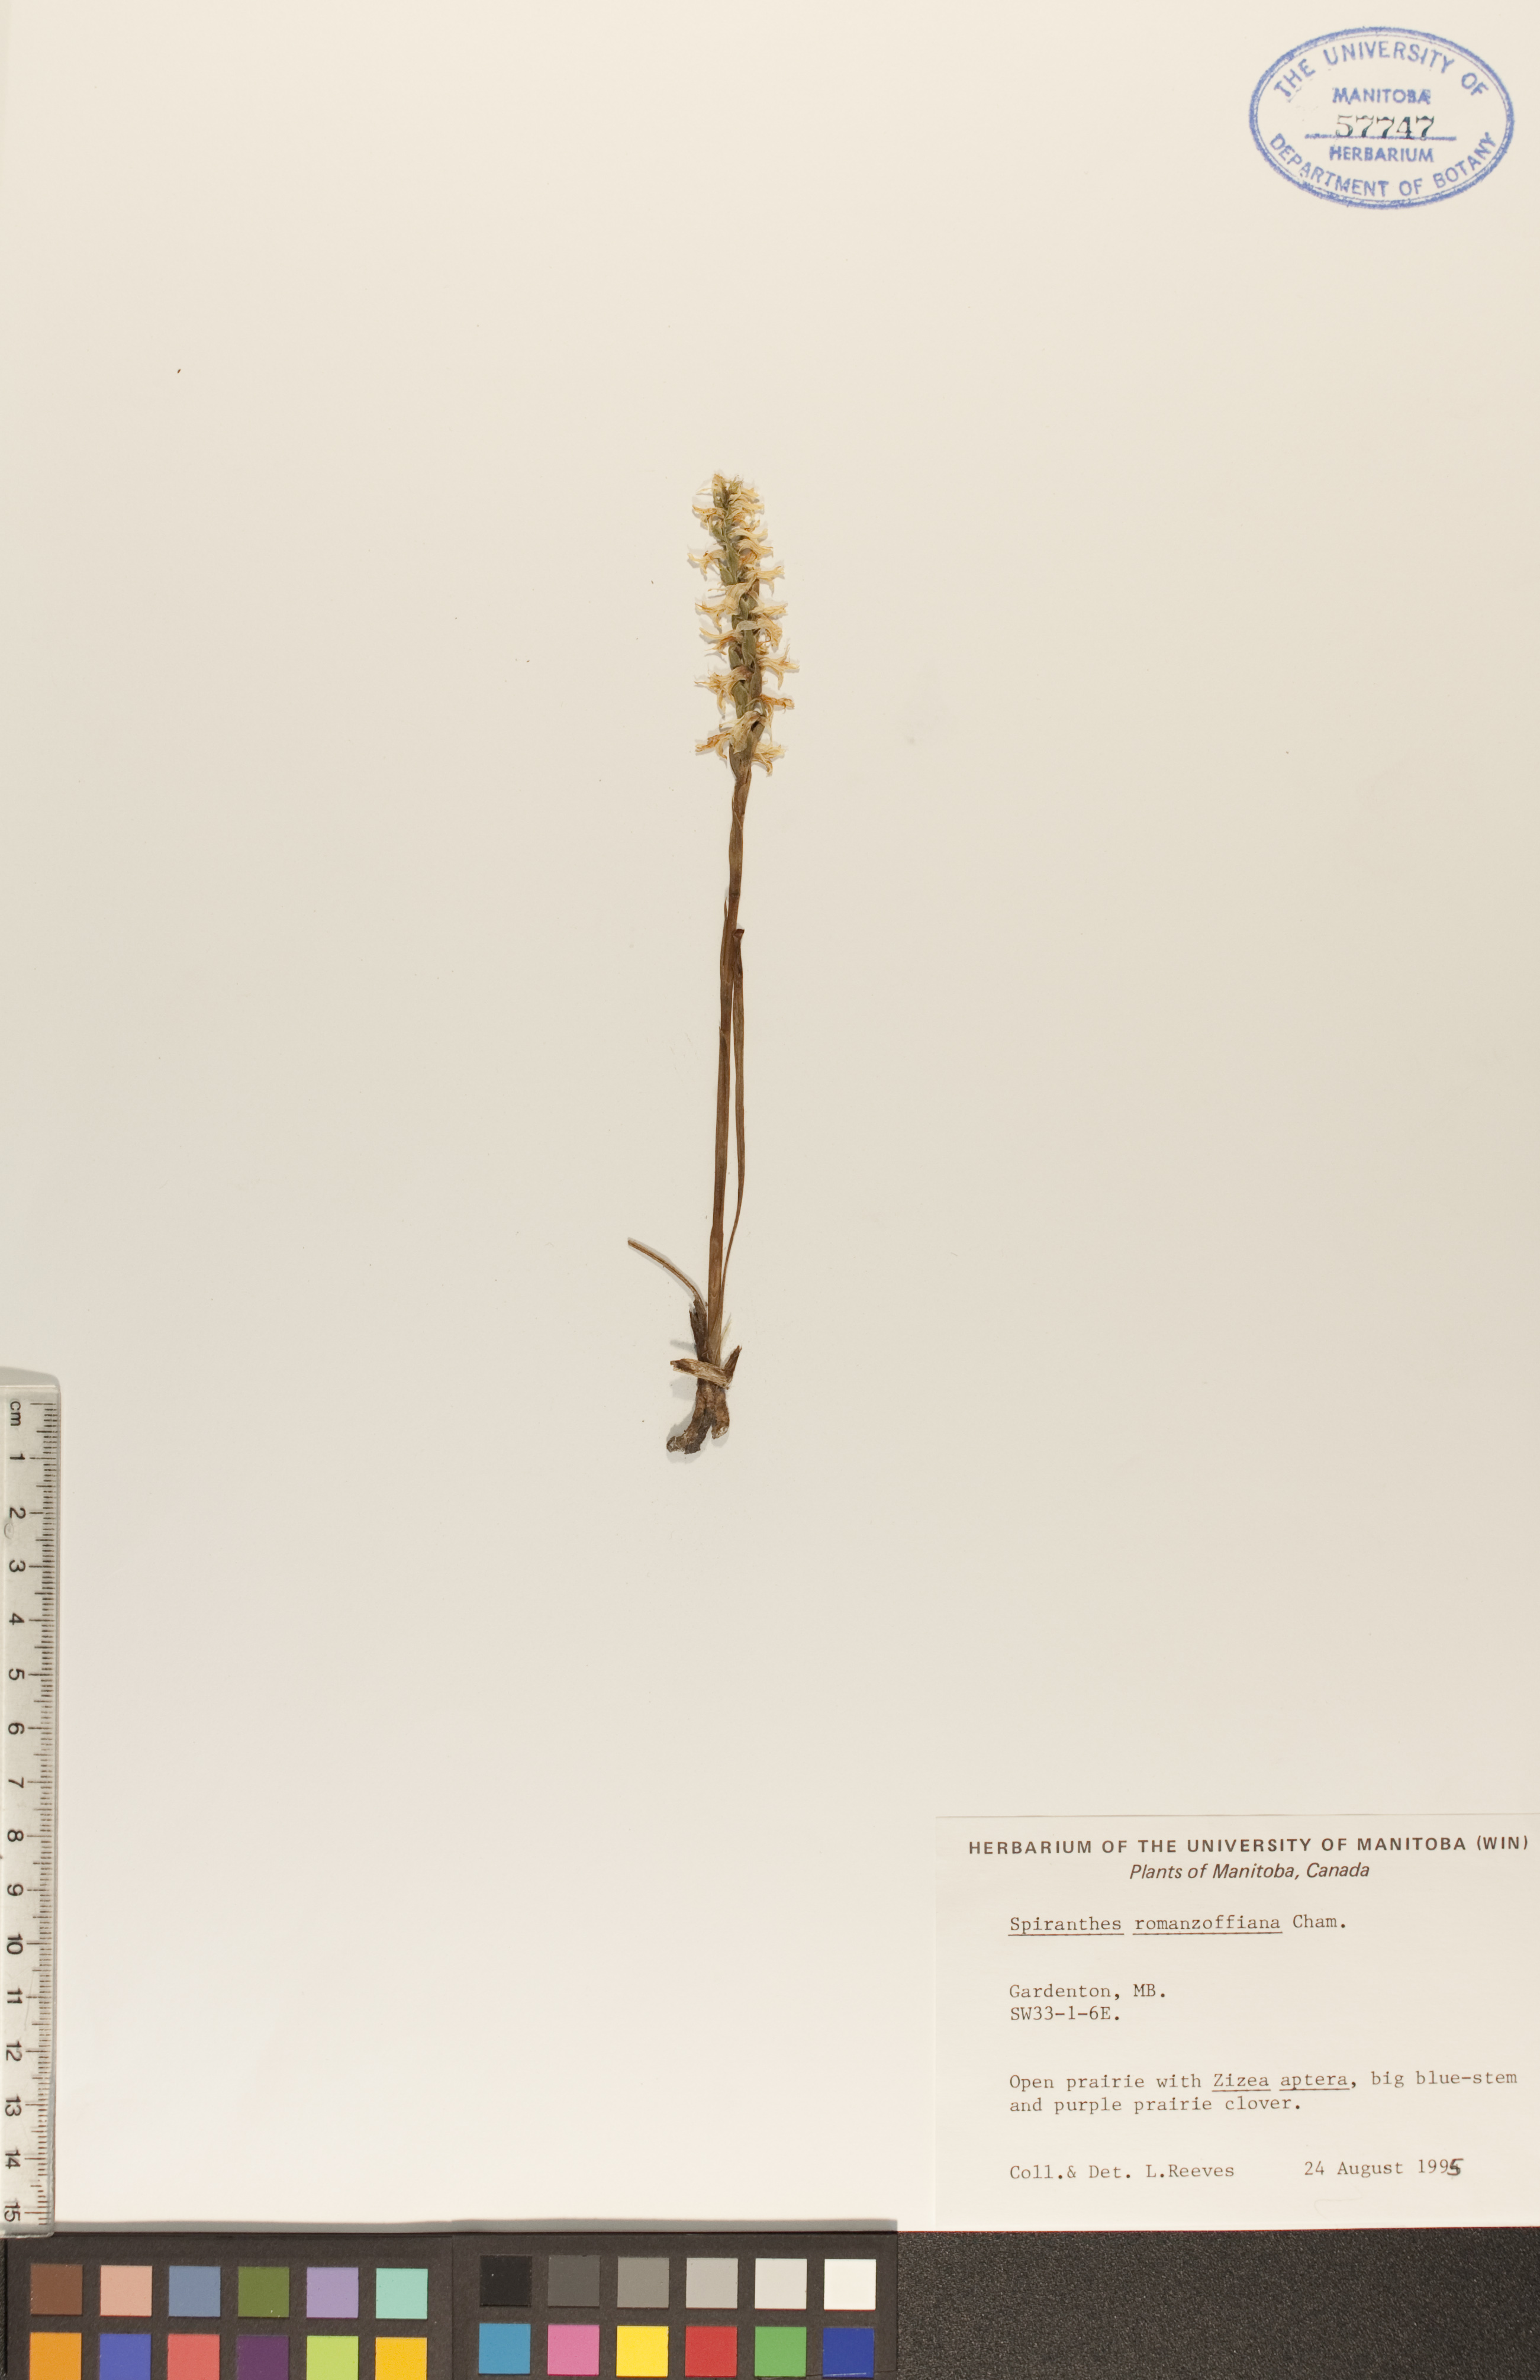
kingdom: Plantae
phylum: Tracheophyta
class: Liliopsida
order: Asparagales
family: Orchidaceae
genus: Spiranthes
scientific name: Spiranthes romanzoffiana
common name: Irish lady's-tresses
